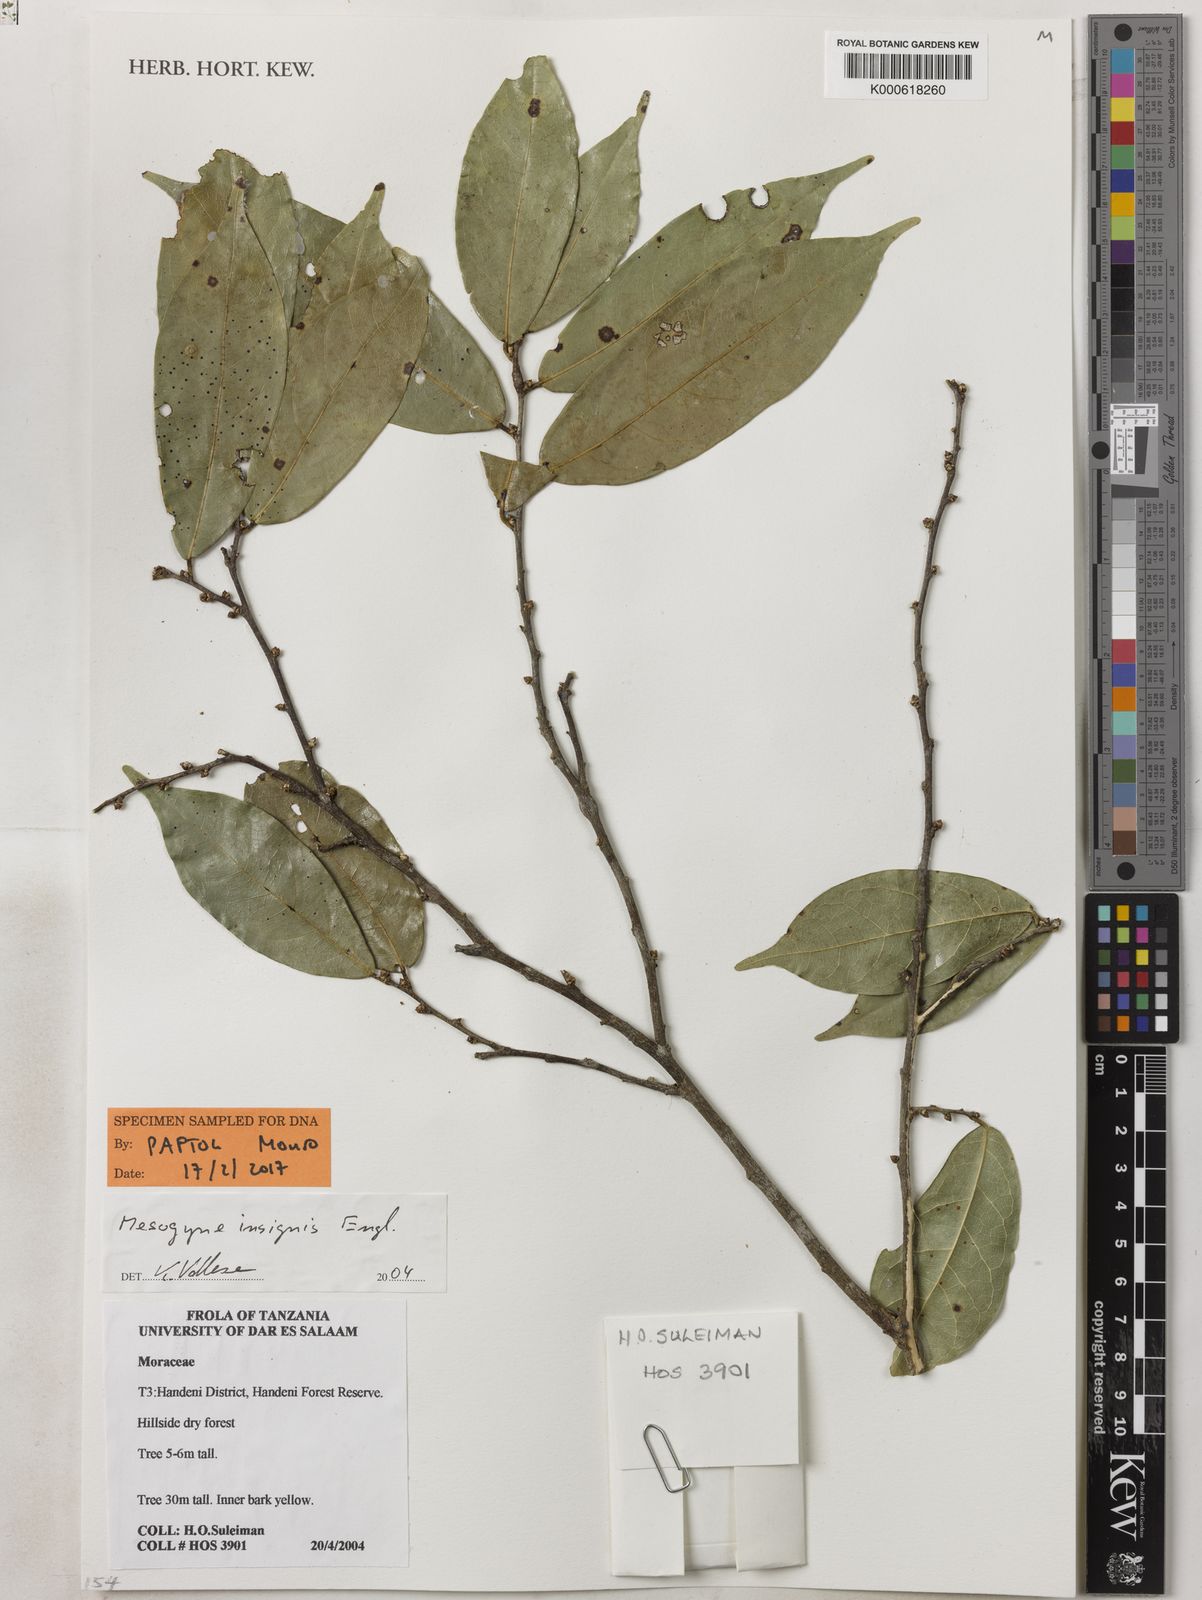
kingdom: Plantae
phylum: Tracheophyta
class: Magnoliopsida
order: Rosales
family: Moraceae
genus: Mesogyne
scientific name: Mesogyne insignis
